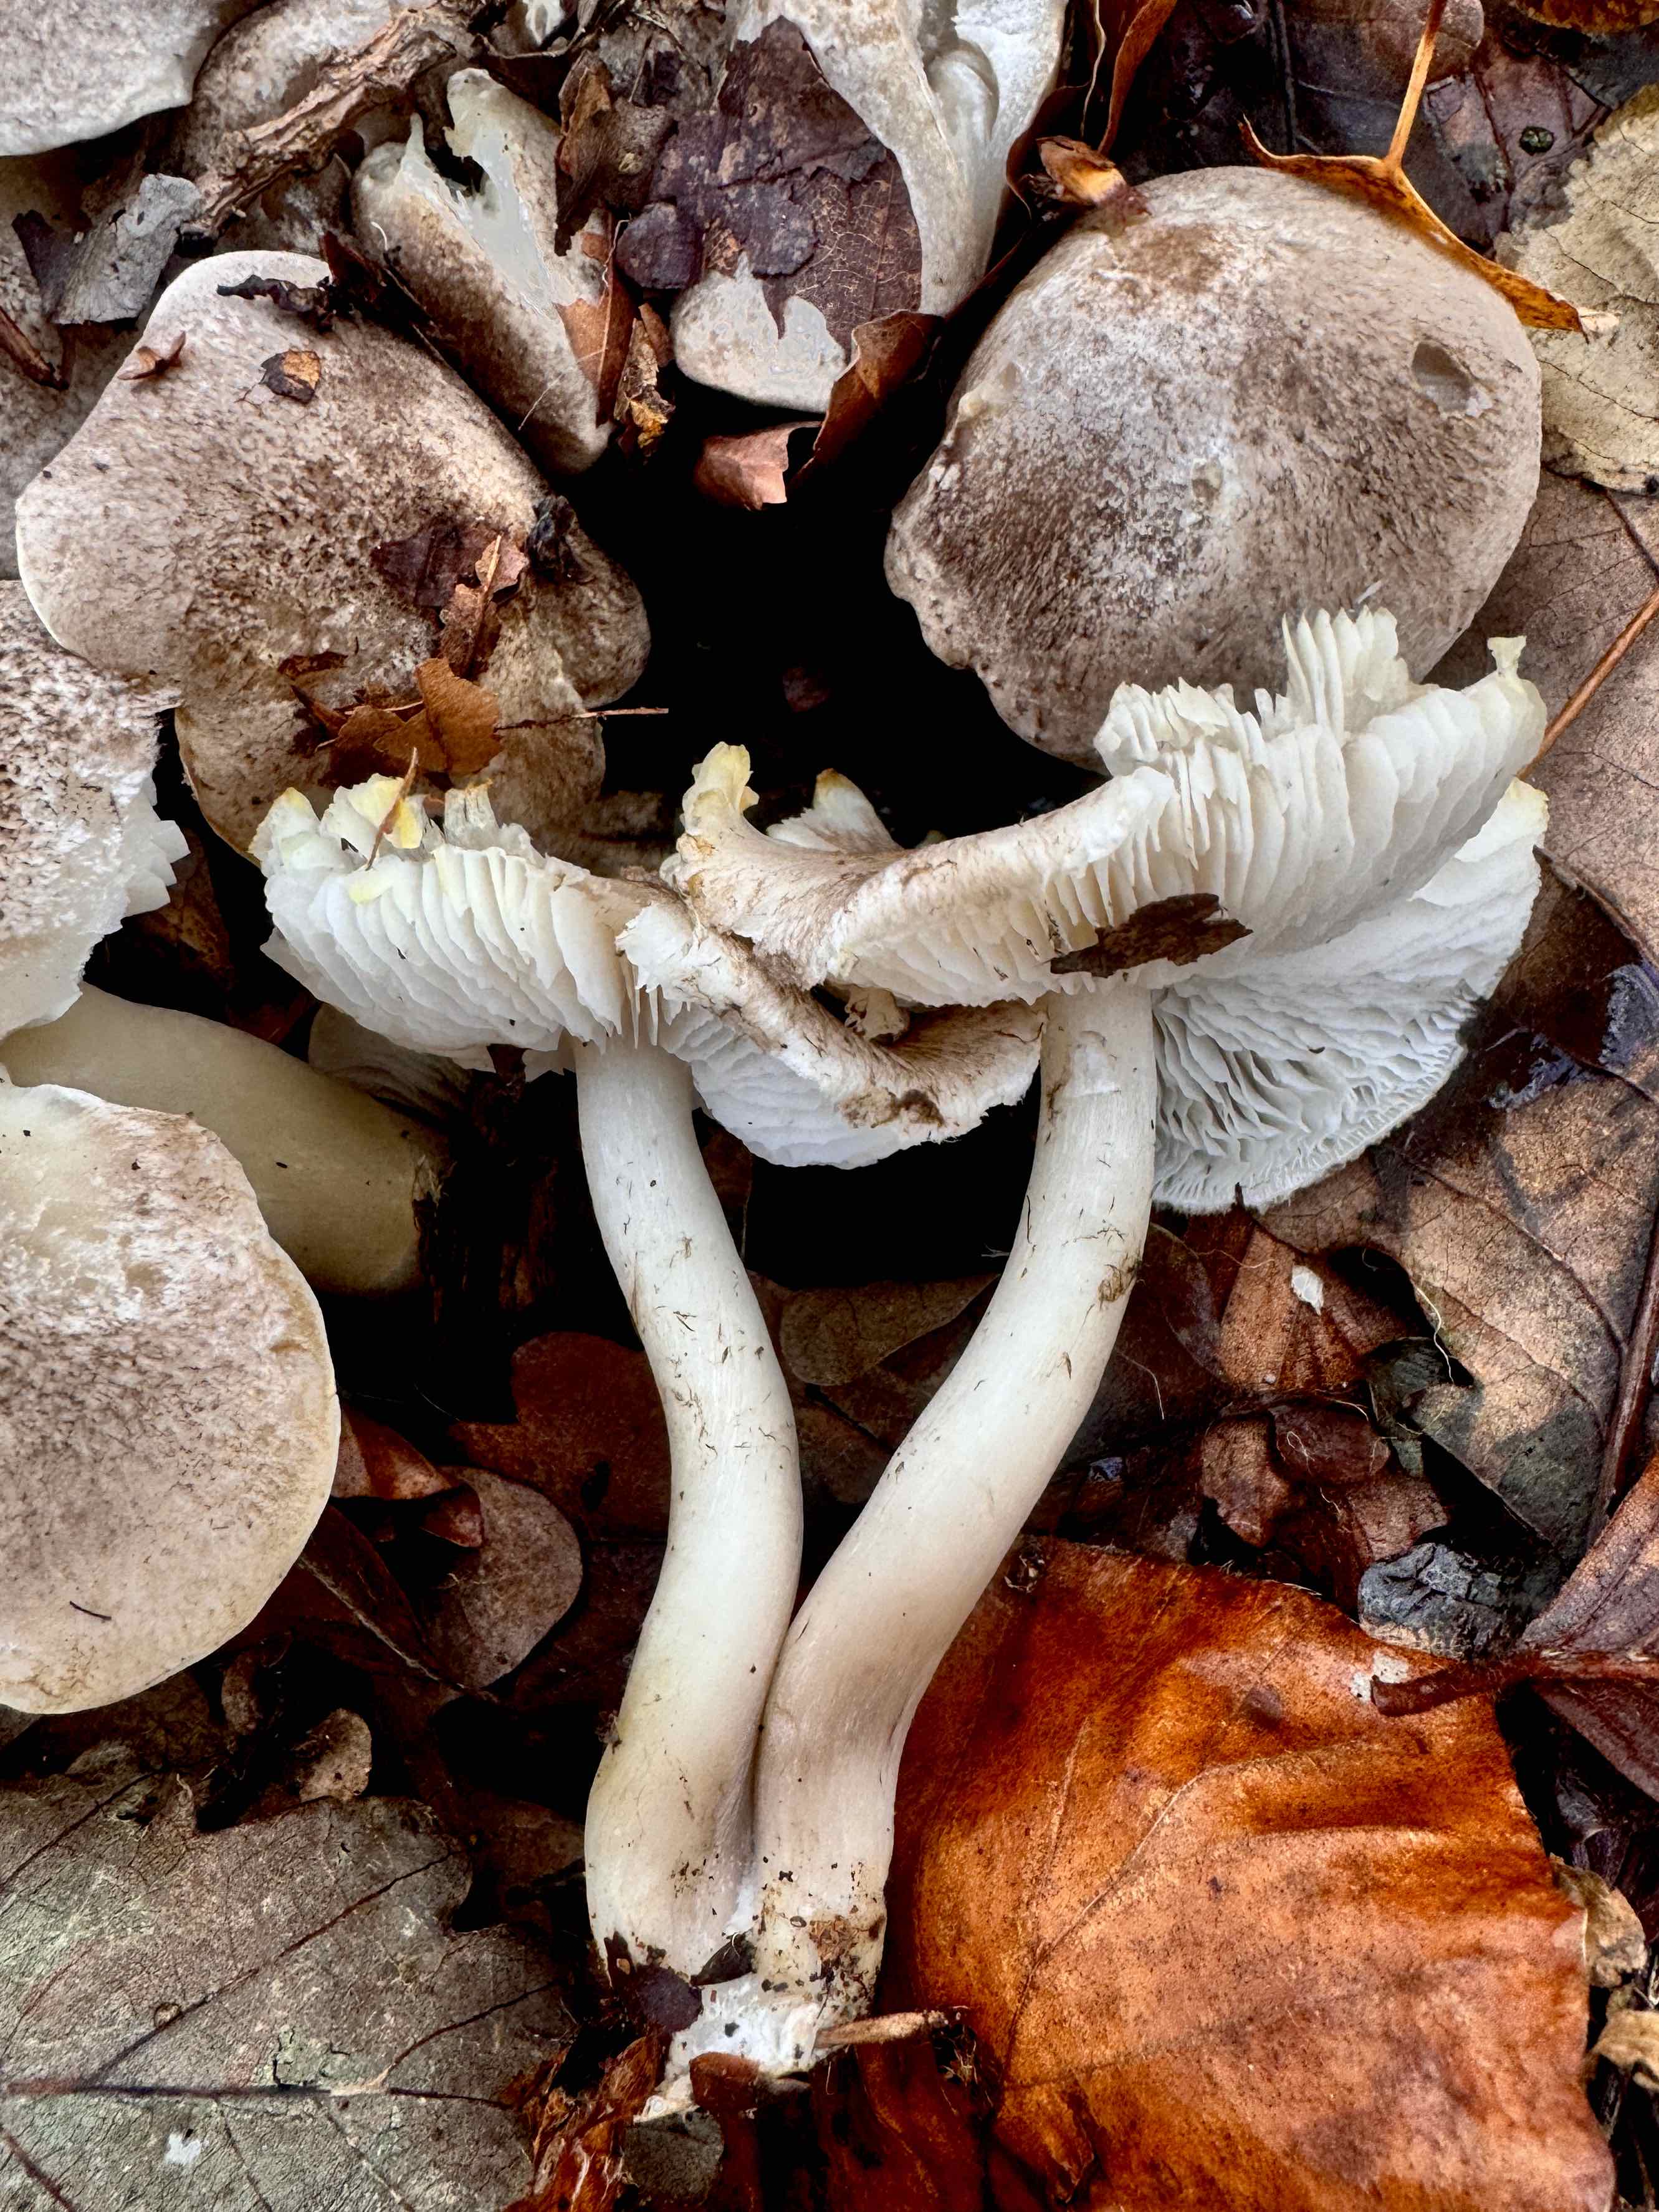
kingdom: Fungi
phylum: Basidiomycota
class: Agaricomycetes
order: Agaricales
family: Tricholomataceae
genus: Tricholoma
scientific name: Tricholoma scalpturatum
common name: gulplettet ridderhat
